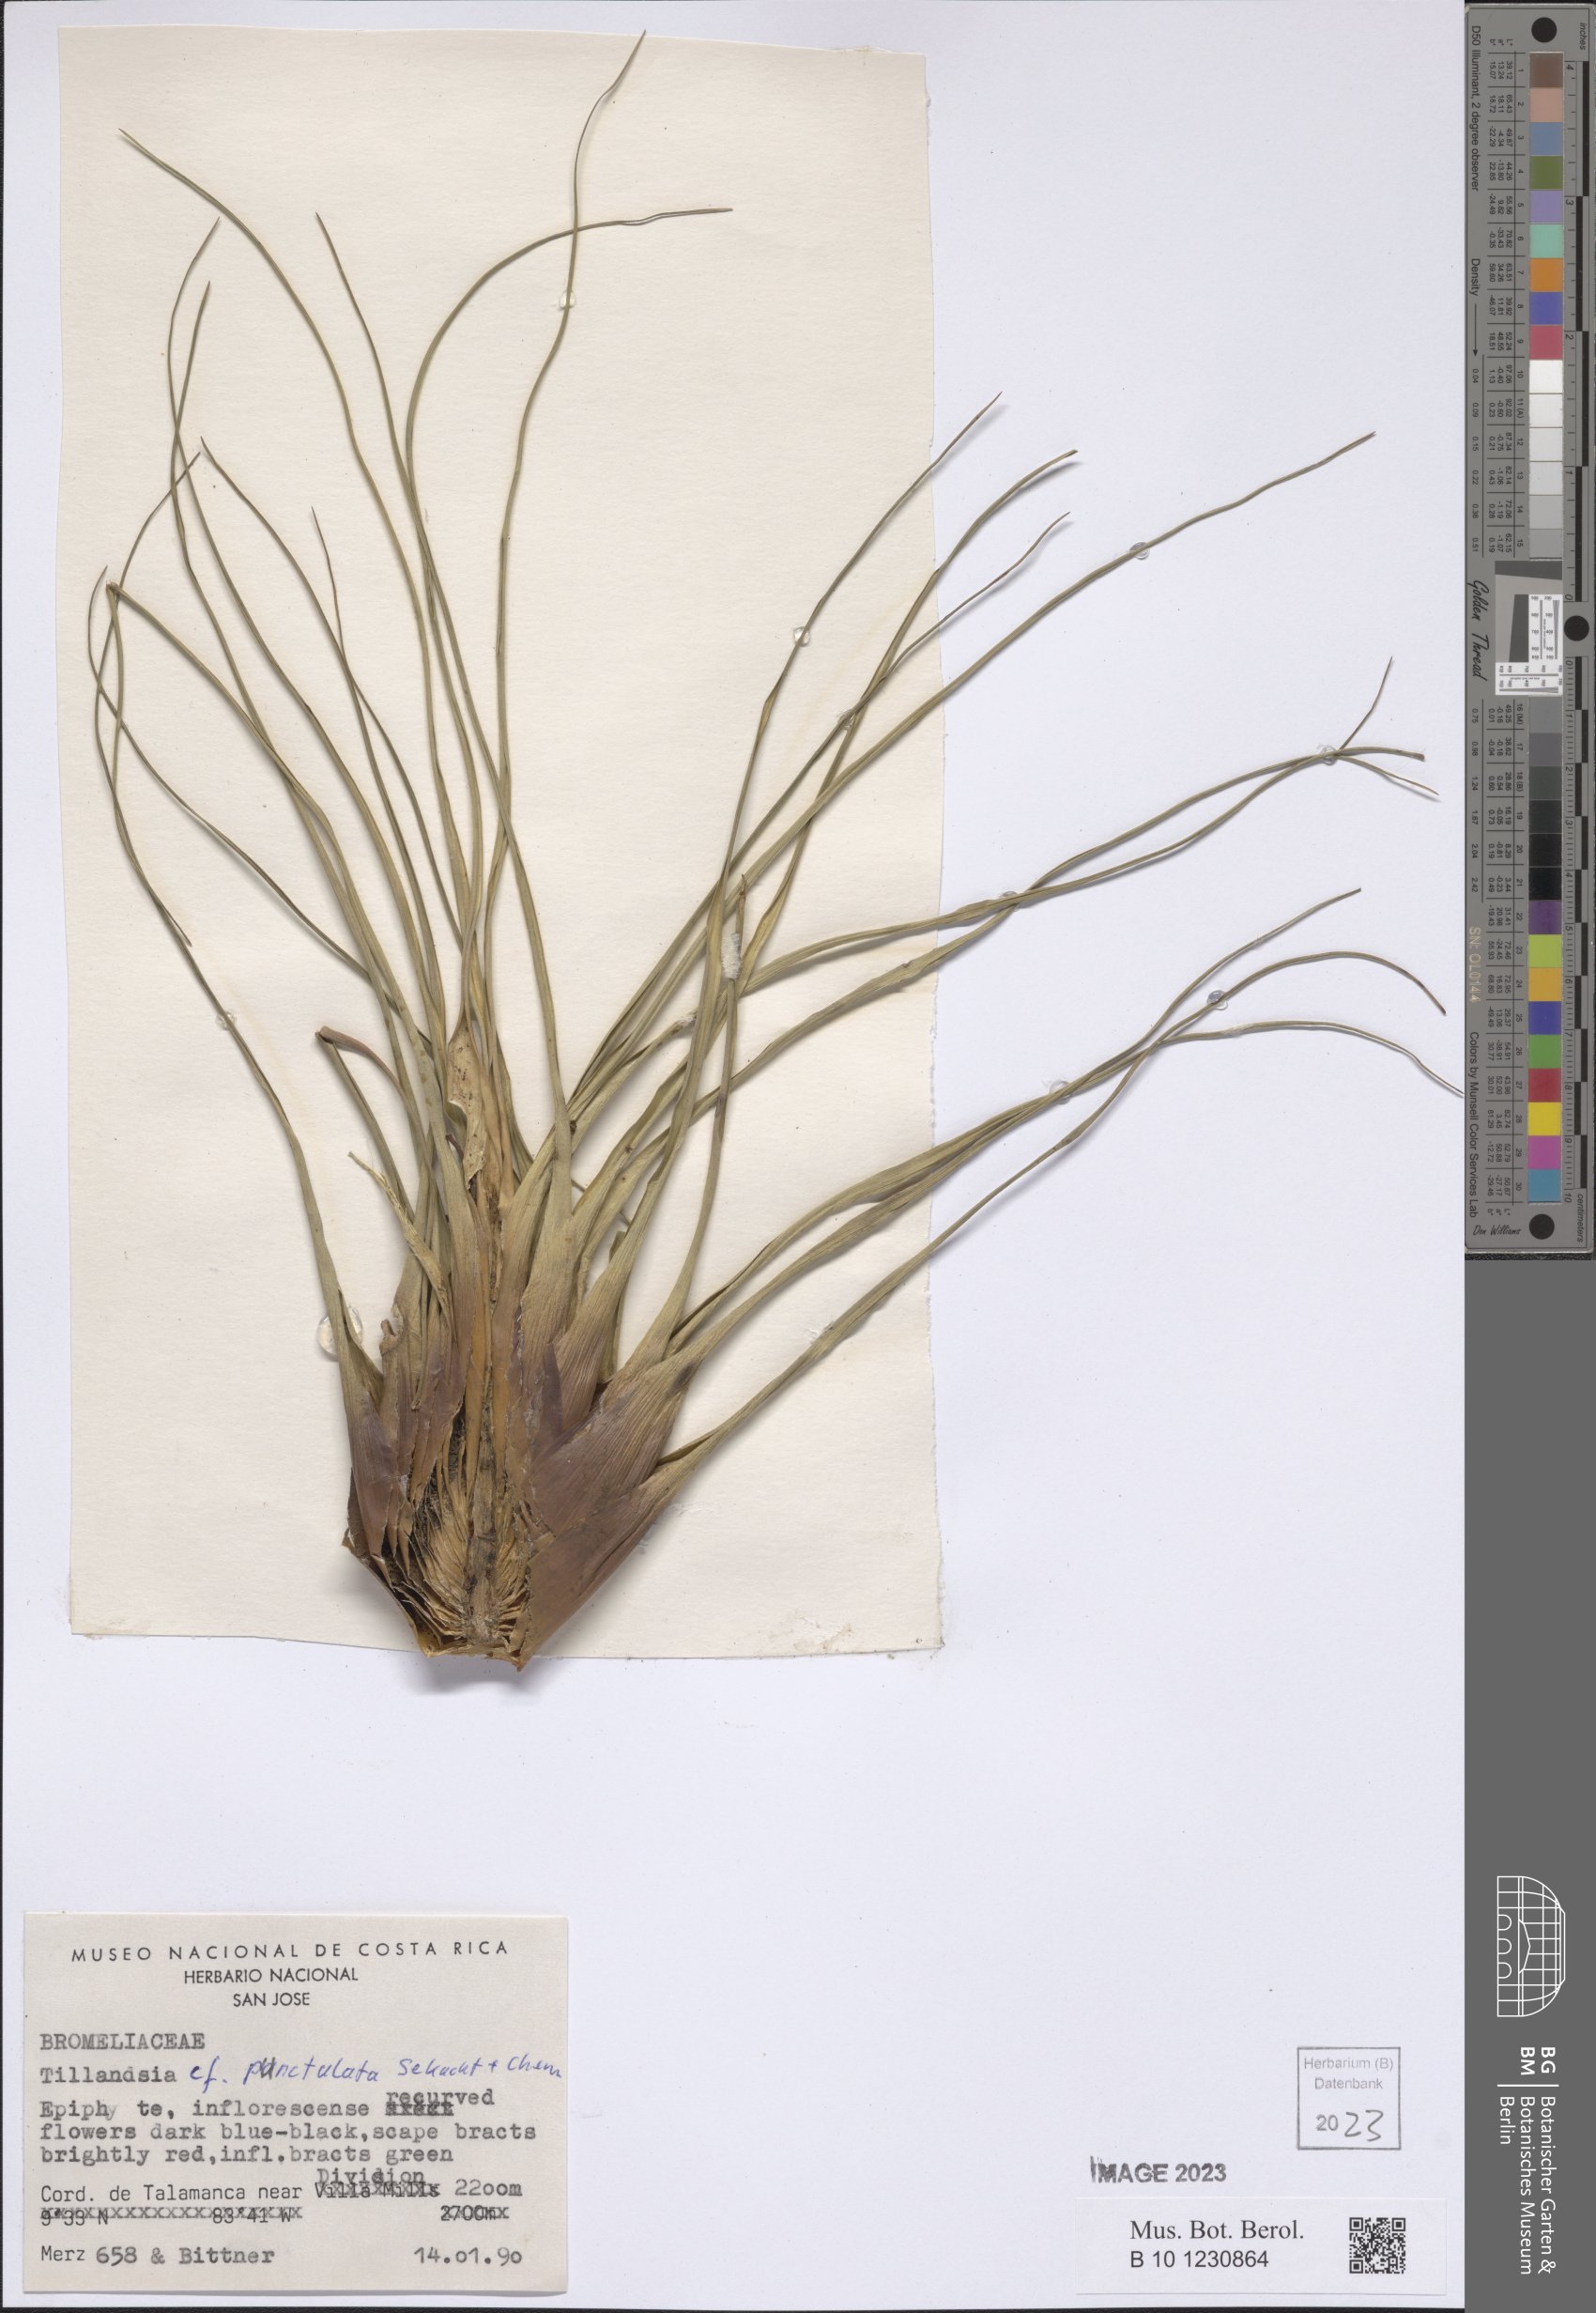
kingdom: Plantae
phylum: Tracheophyta
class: Liliopsida
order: Poales
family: Bromeliaceae
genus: Tillandsia
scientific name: Tillandsia punctulata
